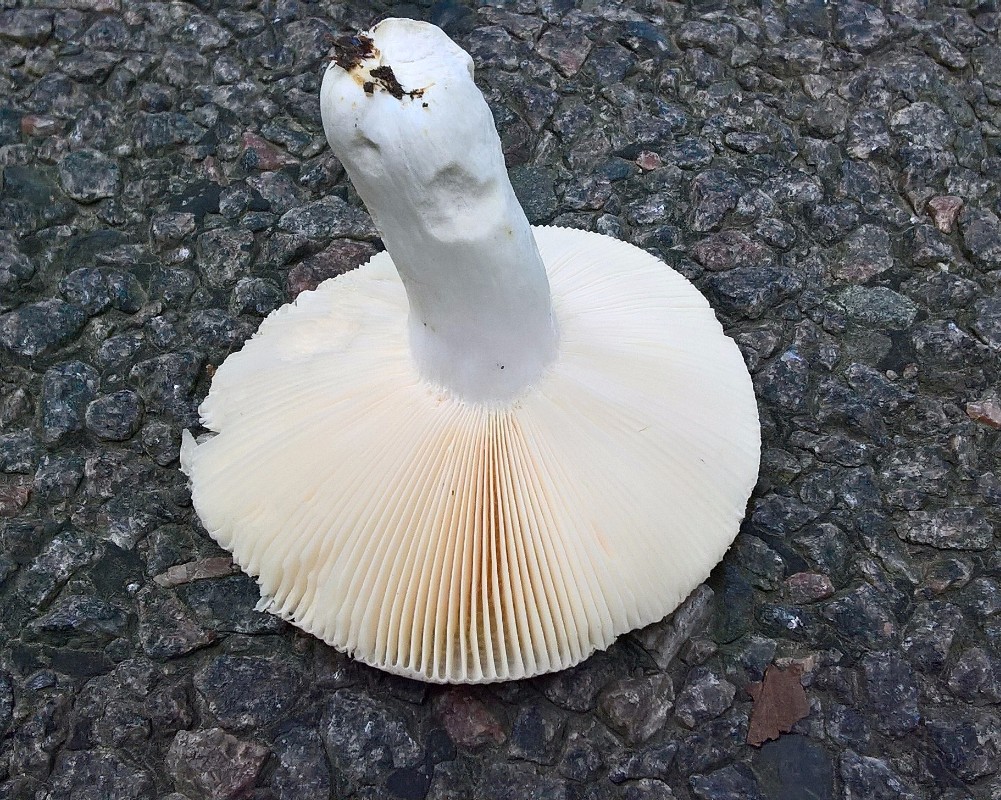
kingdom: Fungi
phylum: Basidiomycota
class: Agaricomycetes
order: Russulales
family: Russulaceae
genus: Russula
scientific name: Russula veternosa
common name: blødkødet skørhat
